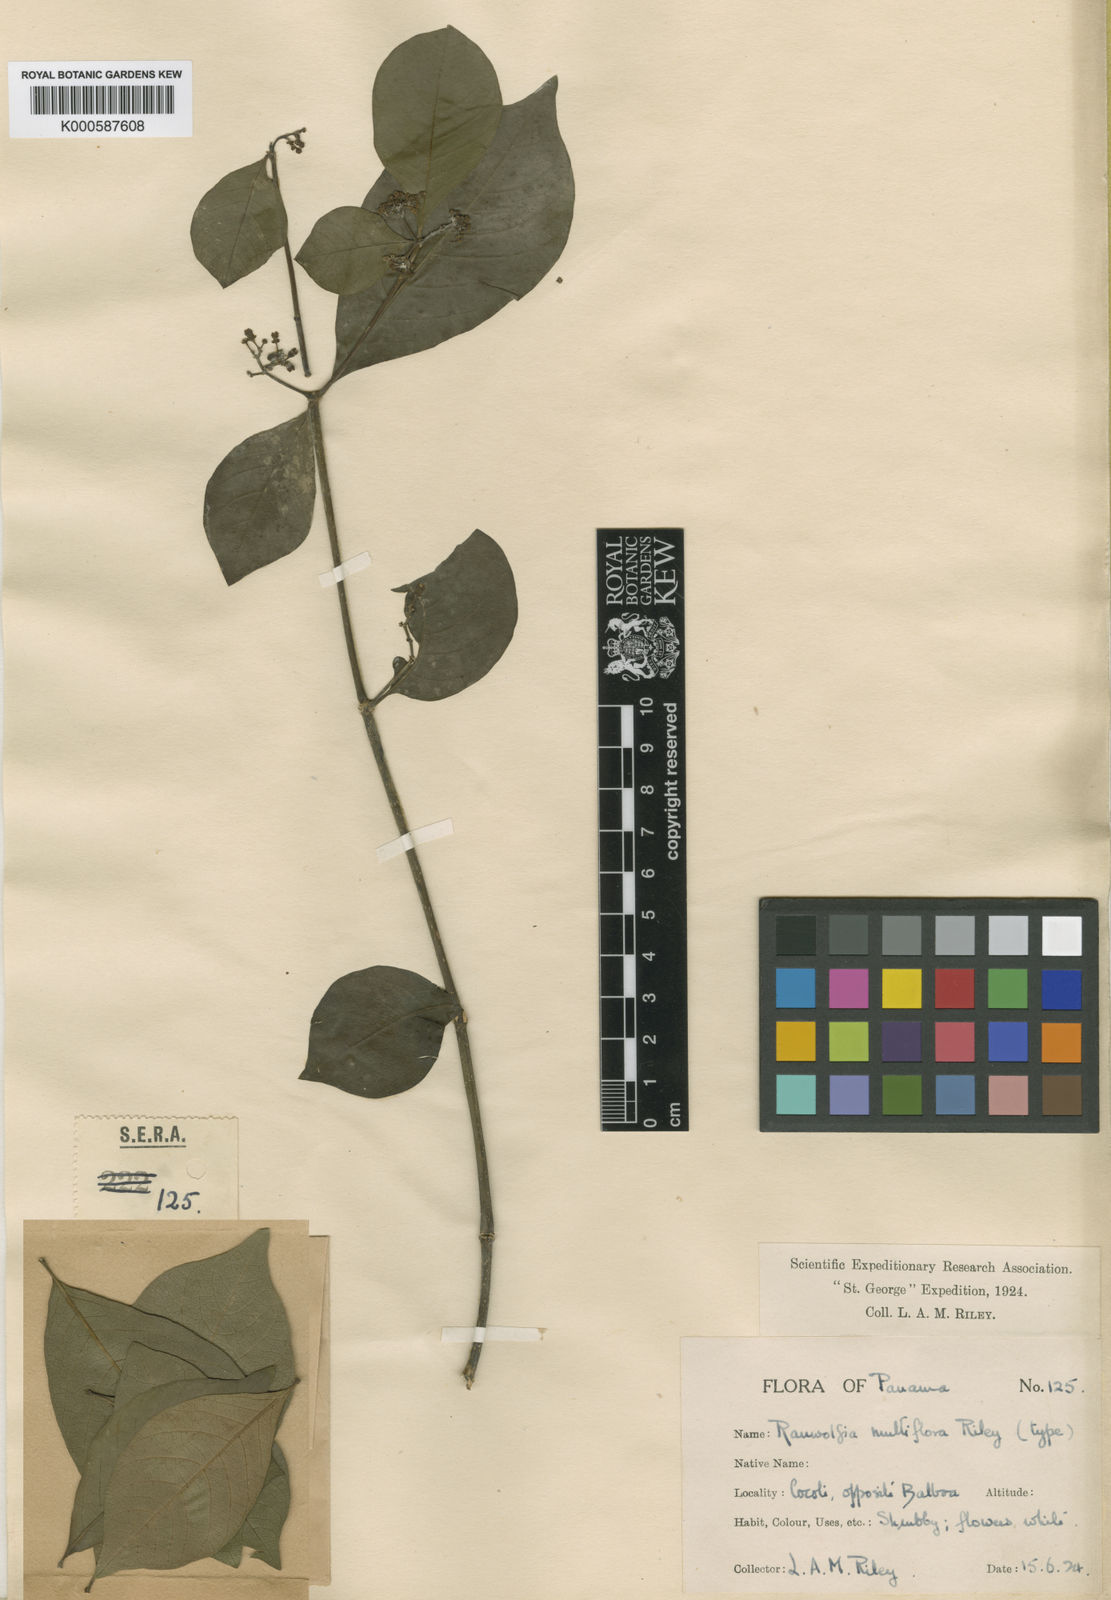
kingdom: Plantae
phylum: Tracheophyta
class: Magnoliopsida
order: Gentianales
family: Apocynaceae
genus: Rauvolfia
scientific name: Rauvolfia littoralis
